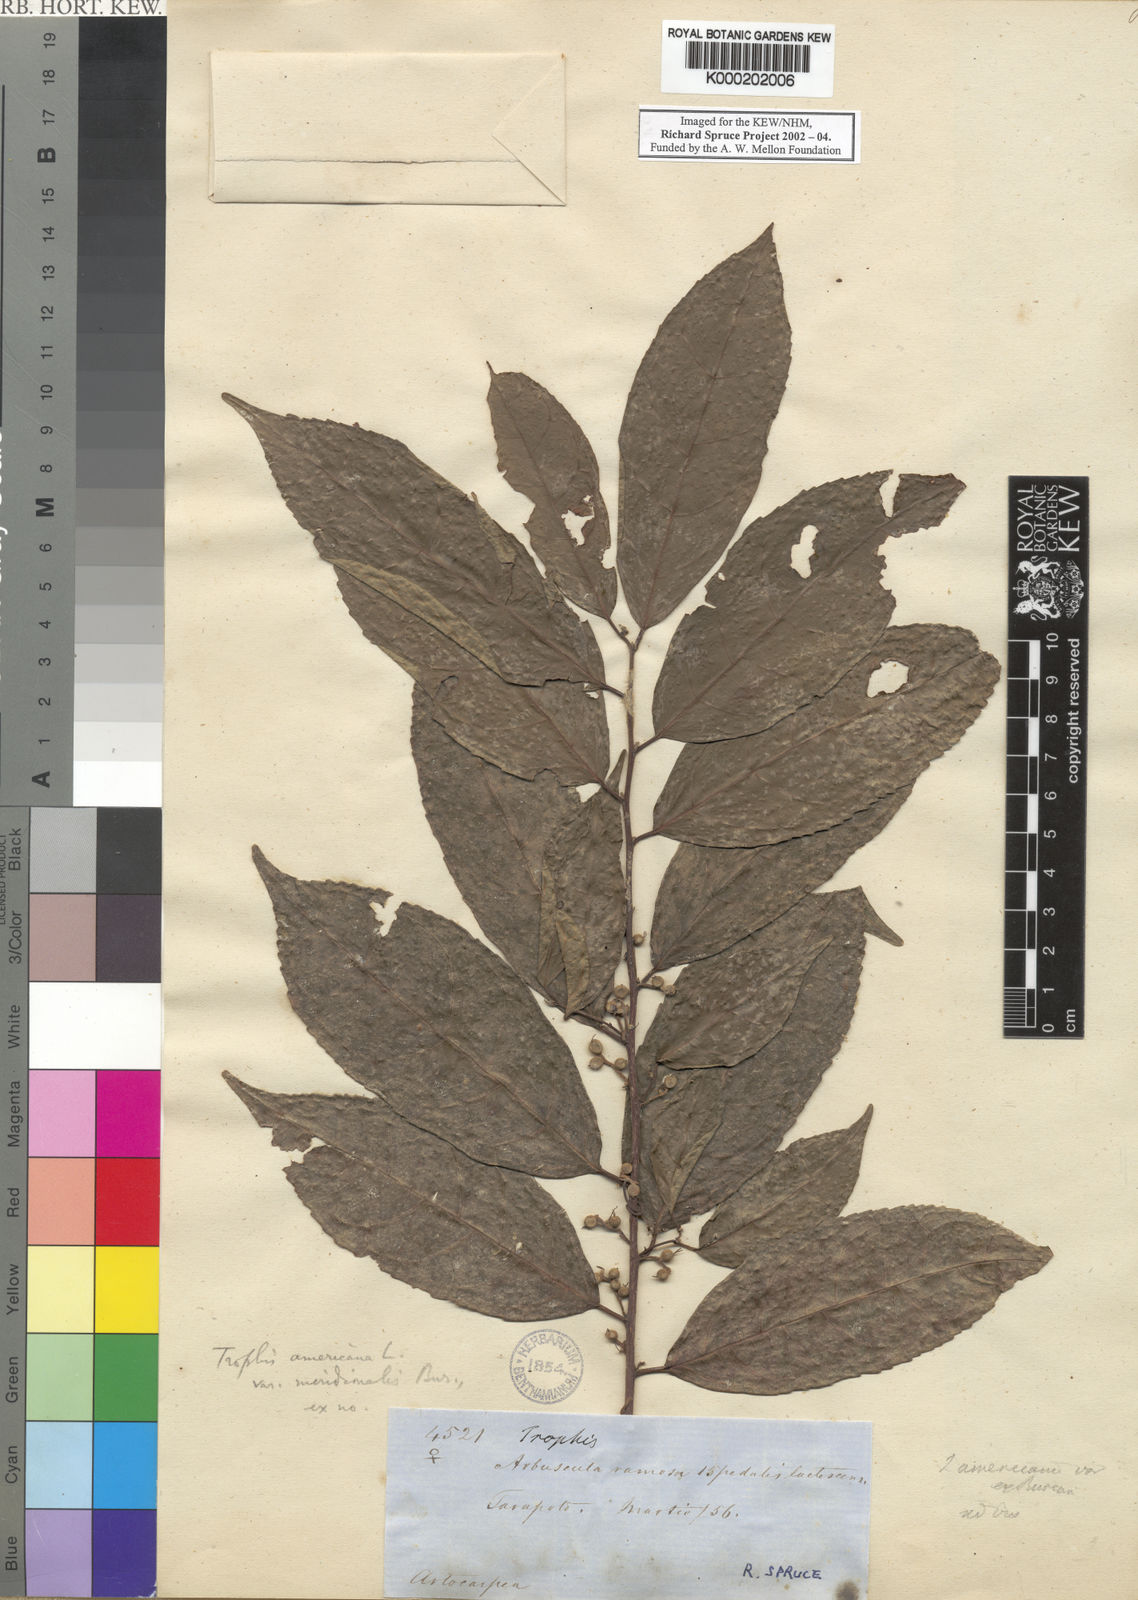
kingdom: Plantae
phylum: Tracheophyta
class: Magnoliopsida
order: Rosales
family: Moraceae
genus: Trophis
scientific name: Trophis racemosa
